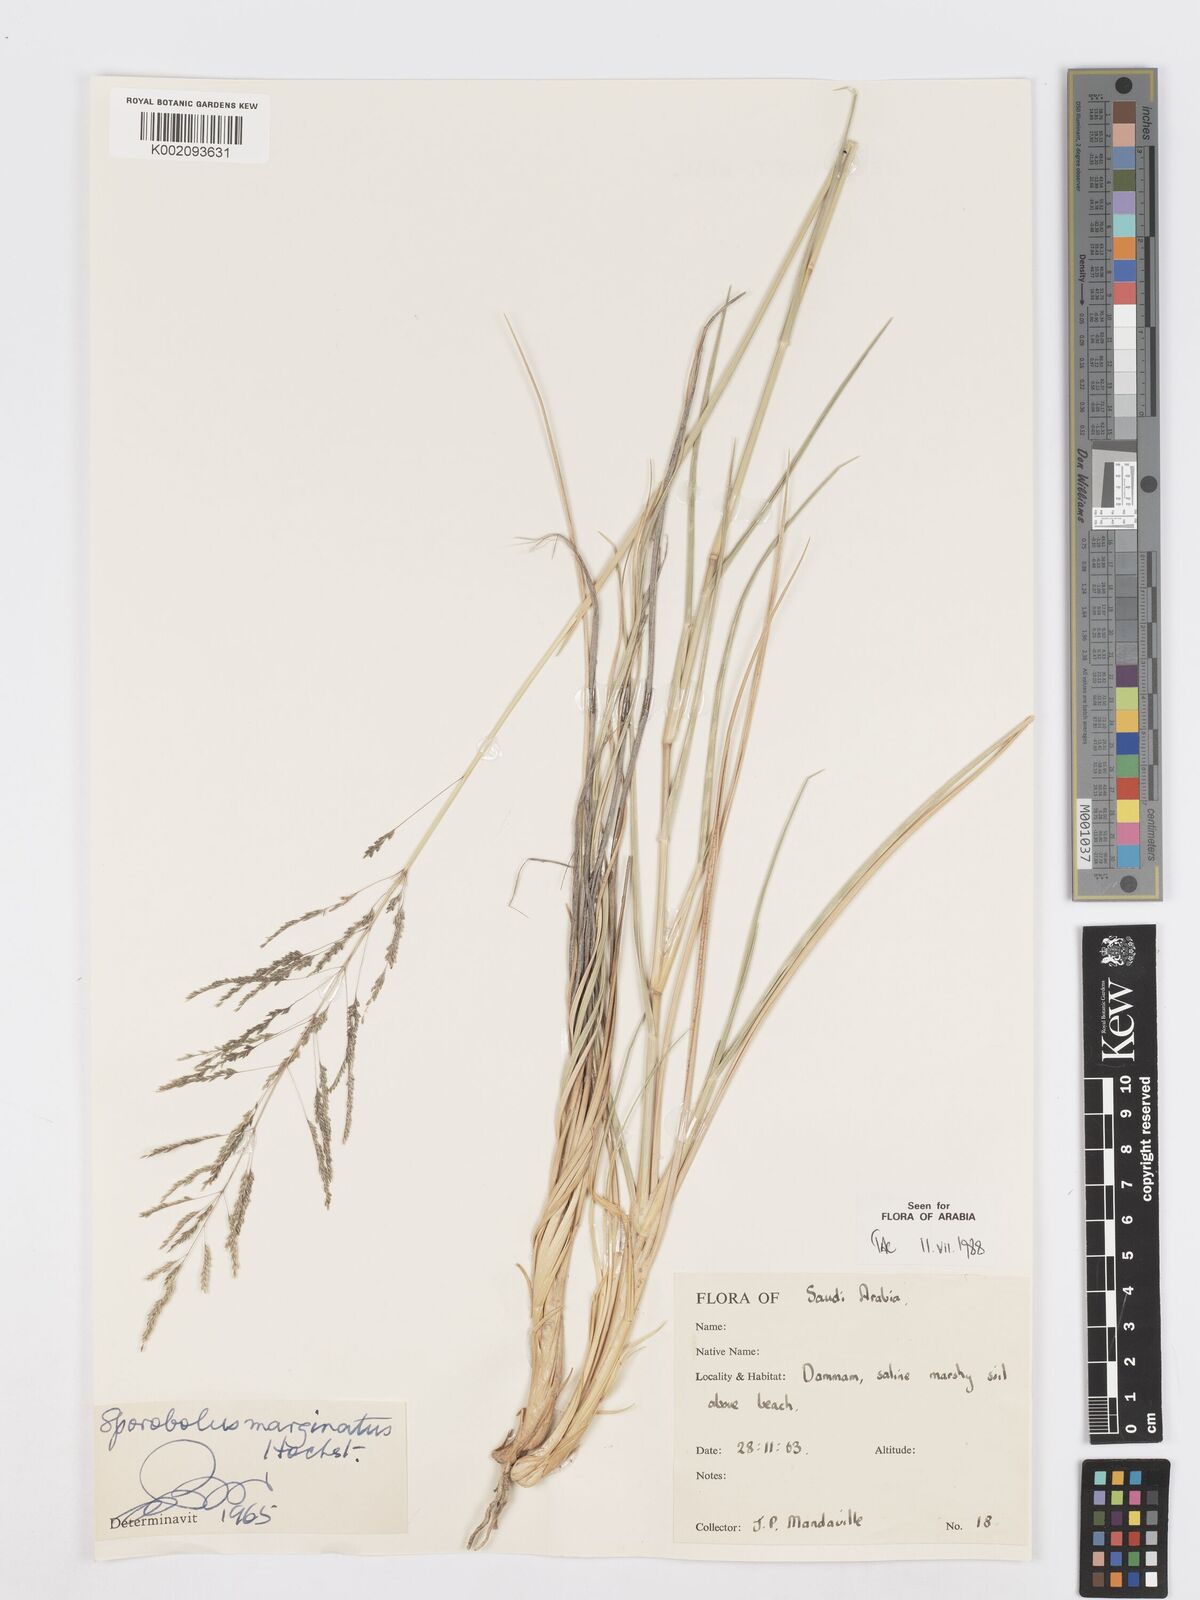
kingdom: Plantae
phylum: Tracheophyta
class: Liliopsida
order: Poales
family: Poaceae
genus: Sporobolus
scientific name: Sporobolus ioclados
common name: Pan dropseed
